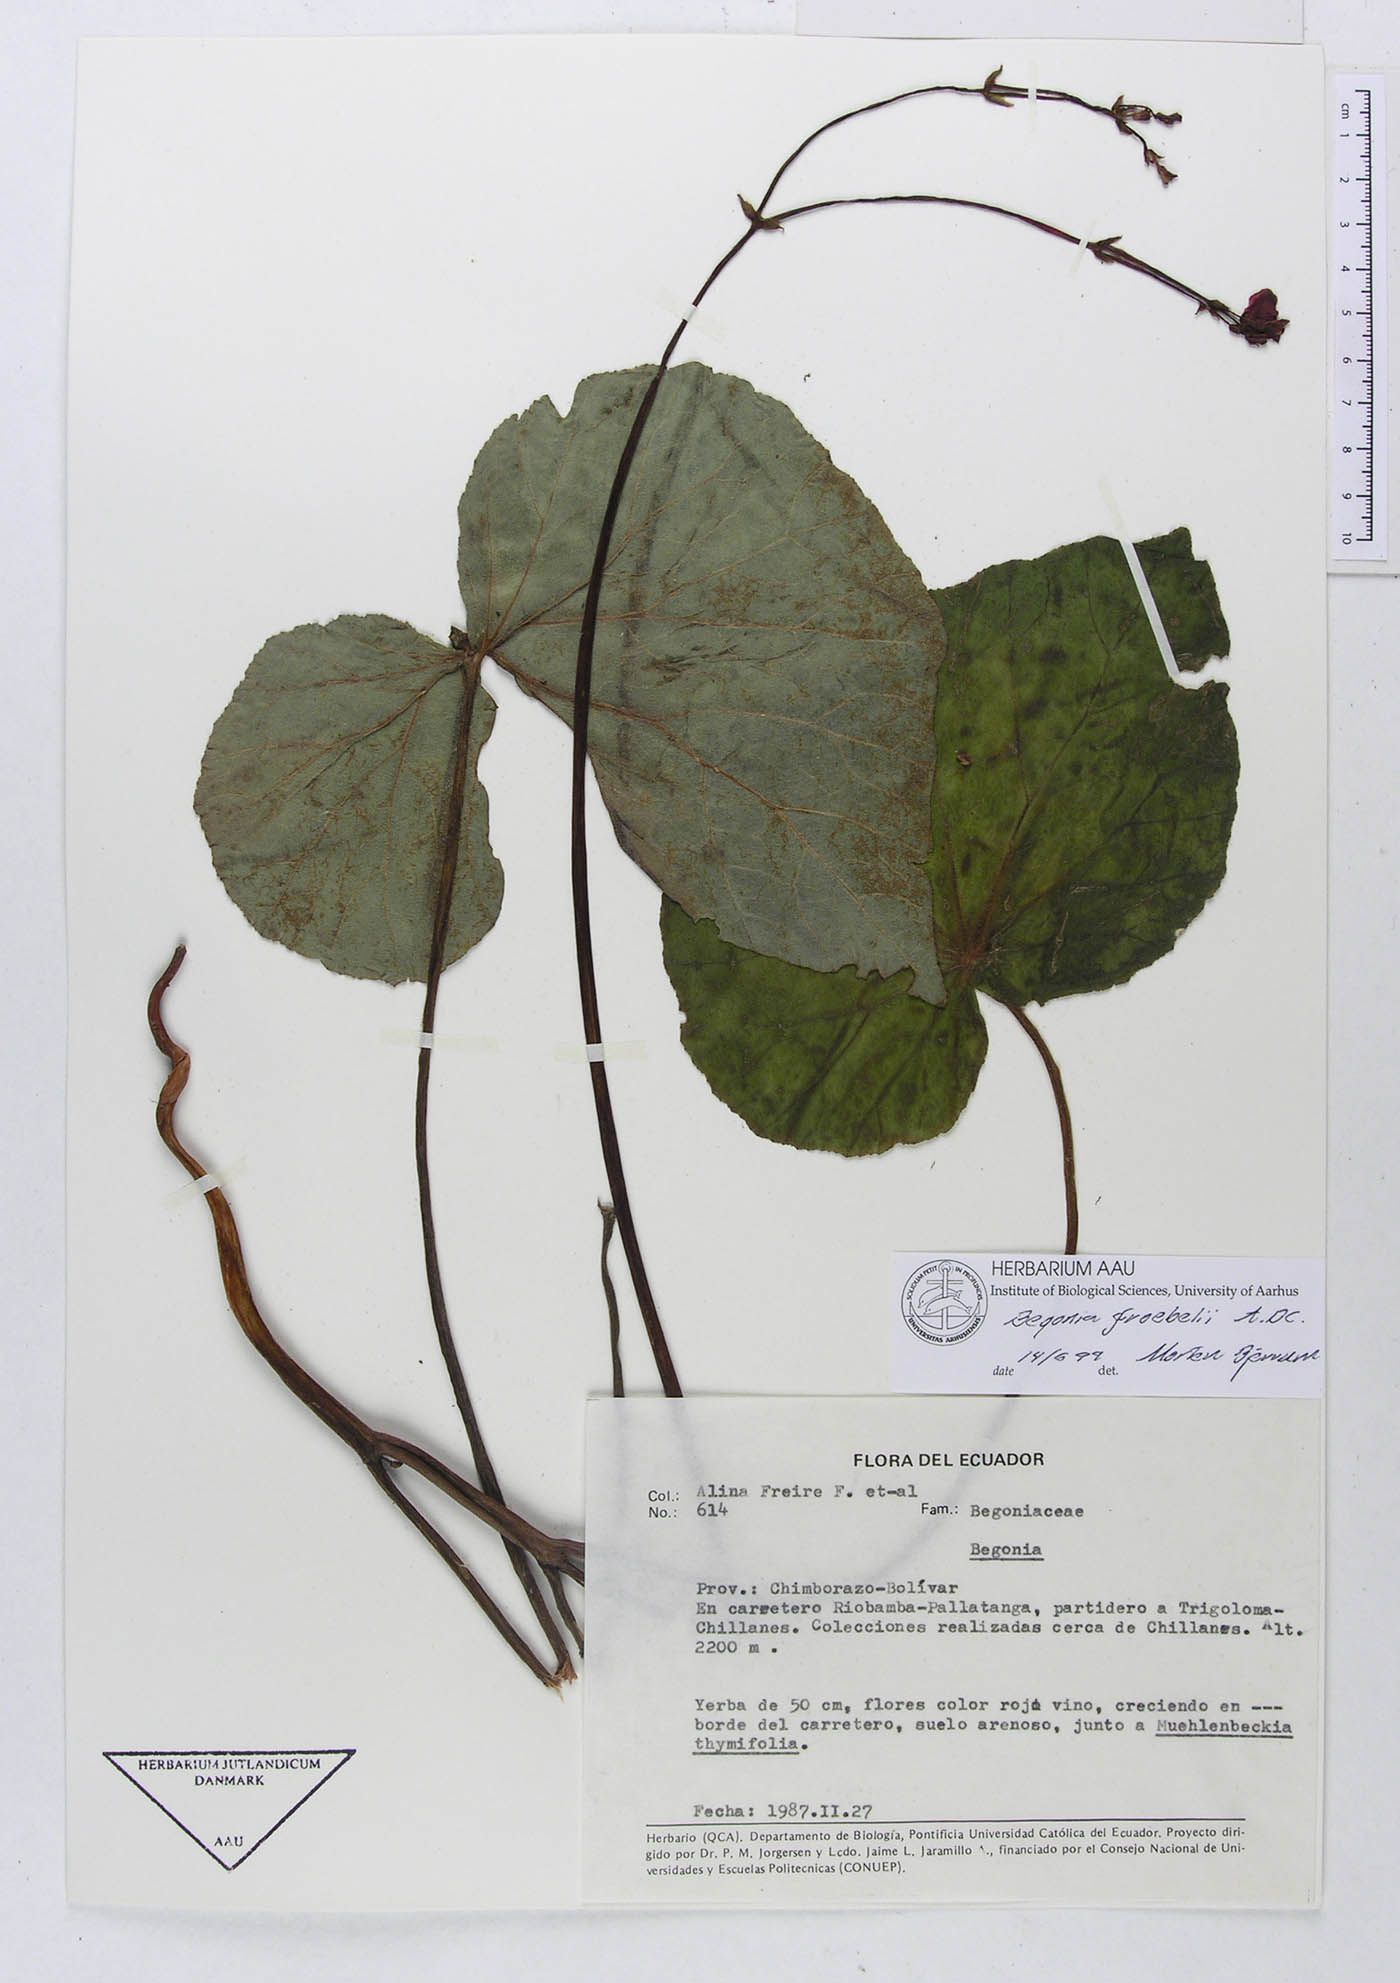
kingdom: Plantae
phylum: Tracheophyta
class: Magnoliopsida
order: Cucurbitales
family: Begoniaceae
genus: Begonia
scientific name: Begonia froebelii
